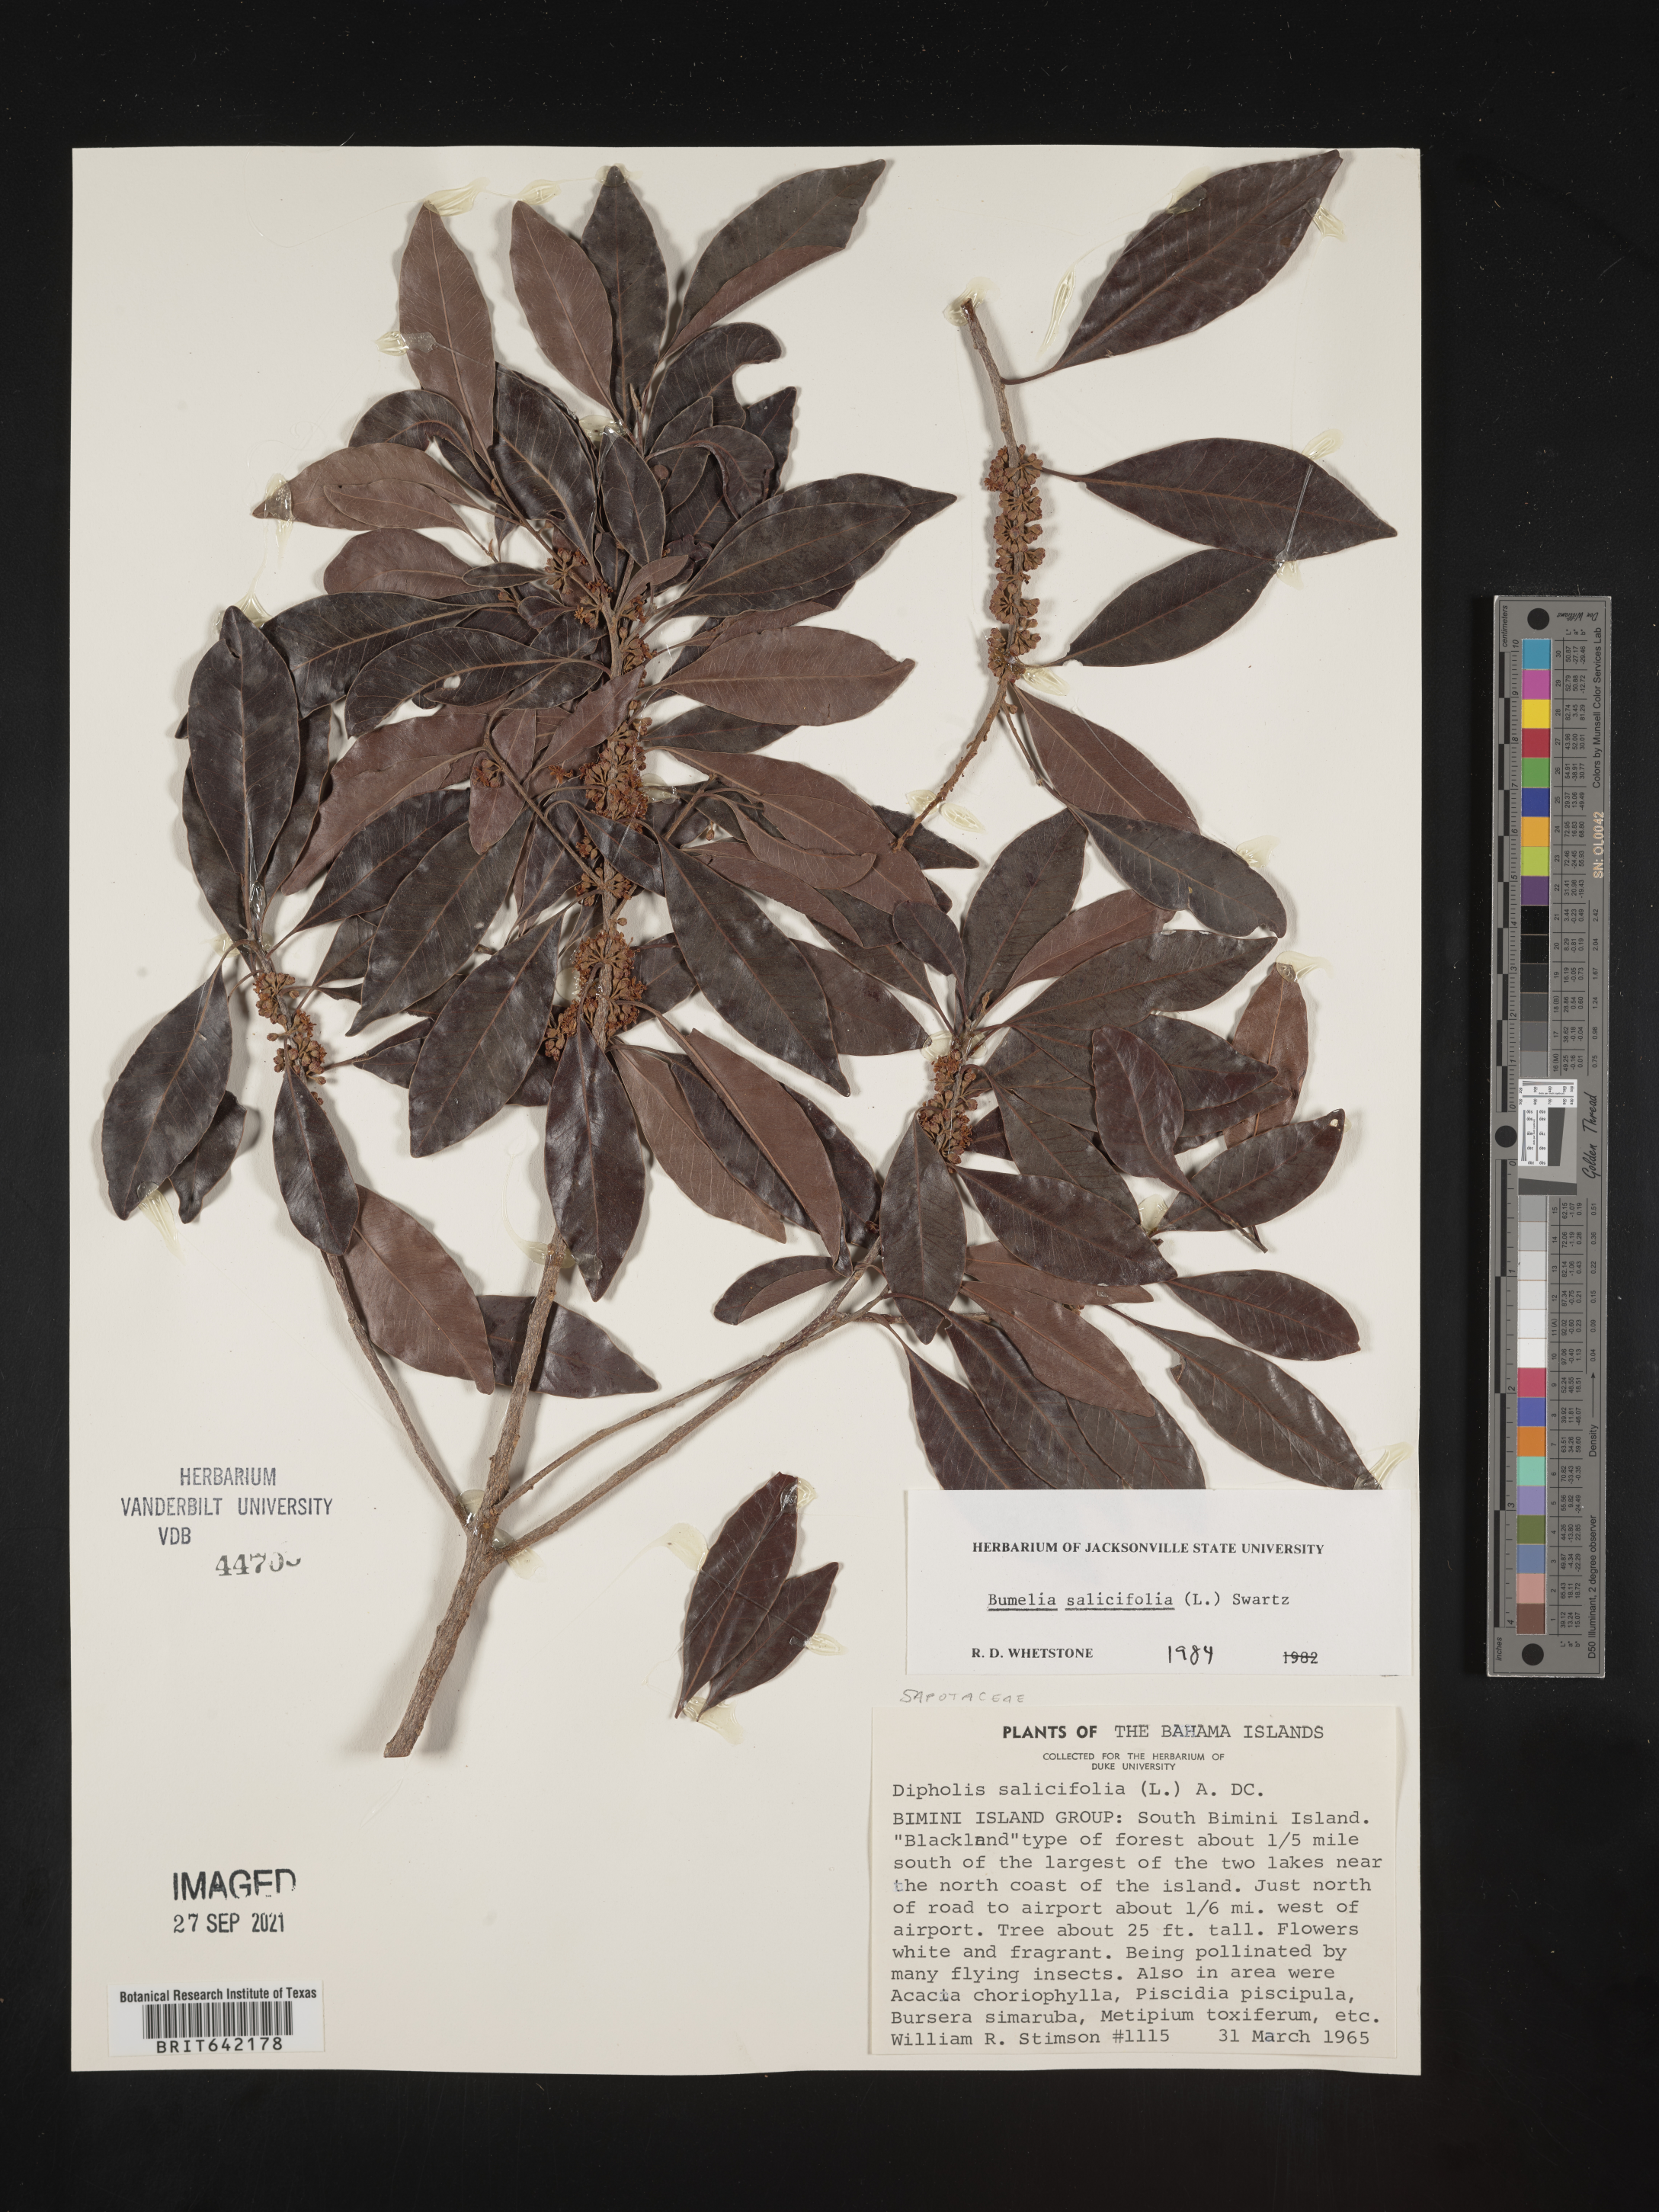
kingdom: Plantae
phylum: Tracheophyta
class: Magnoliopsida
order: Ericales
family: Sapotaceae
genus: Sideroxylon
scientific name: Sideroxylon
